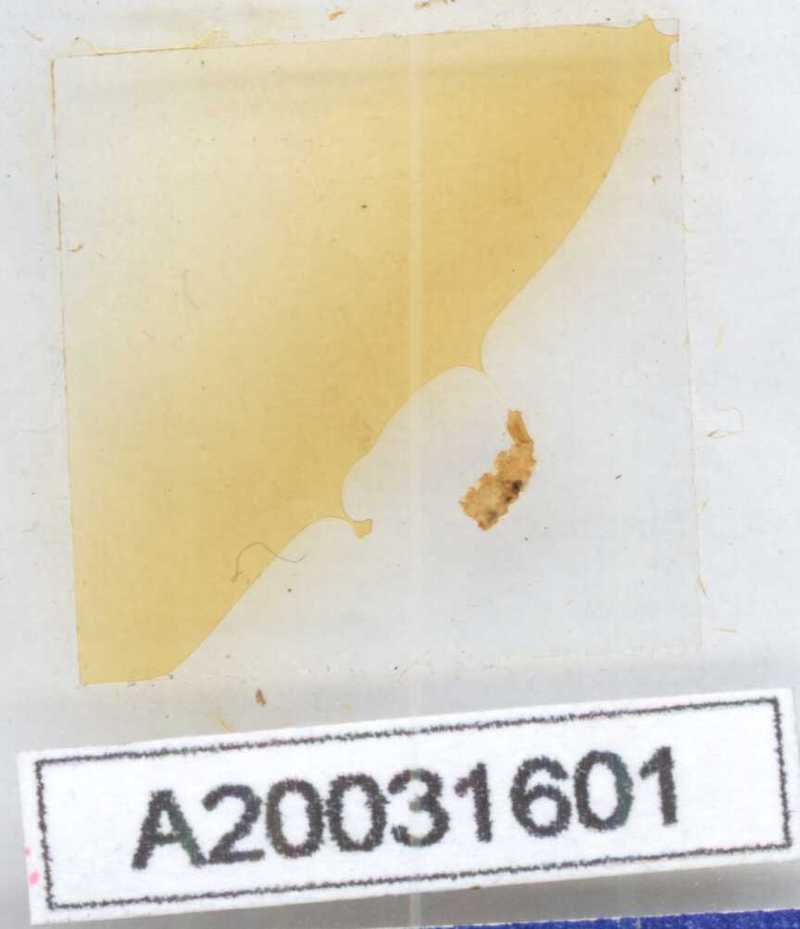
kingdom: Animalia
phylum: Arthropoda
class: Diplopoda
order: Polyxenida
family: Lophoproctidae
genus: Lophoproctus
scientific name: Lophoproctus lucidus
